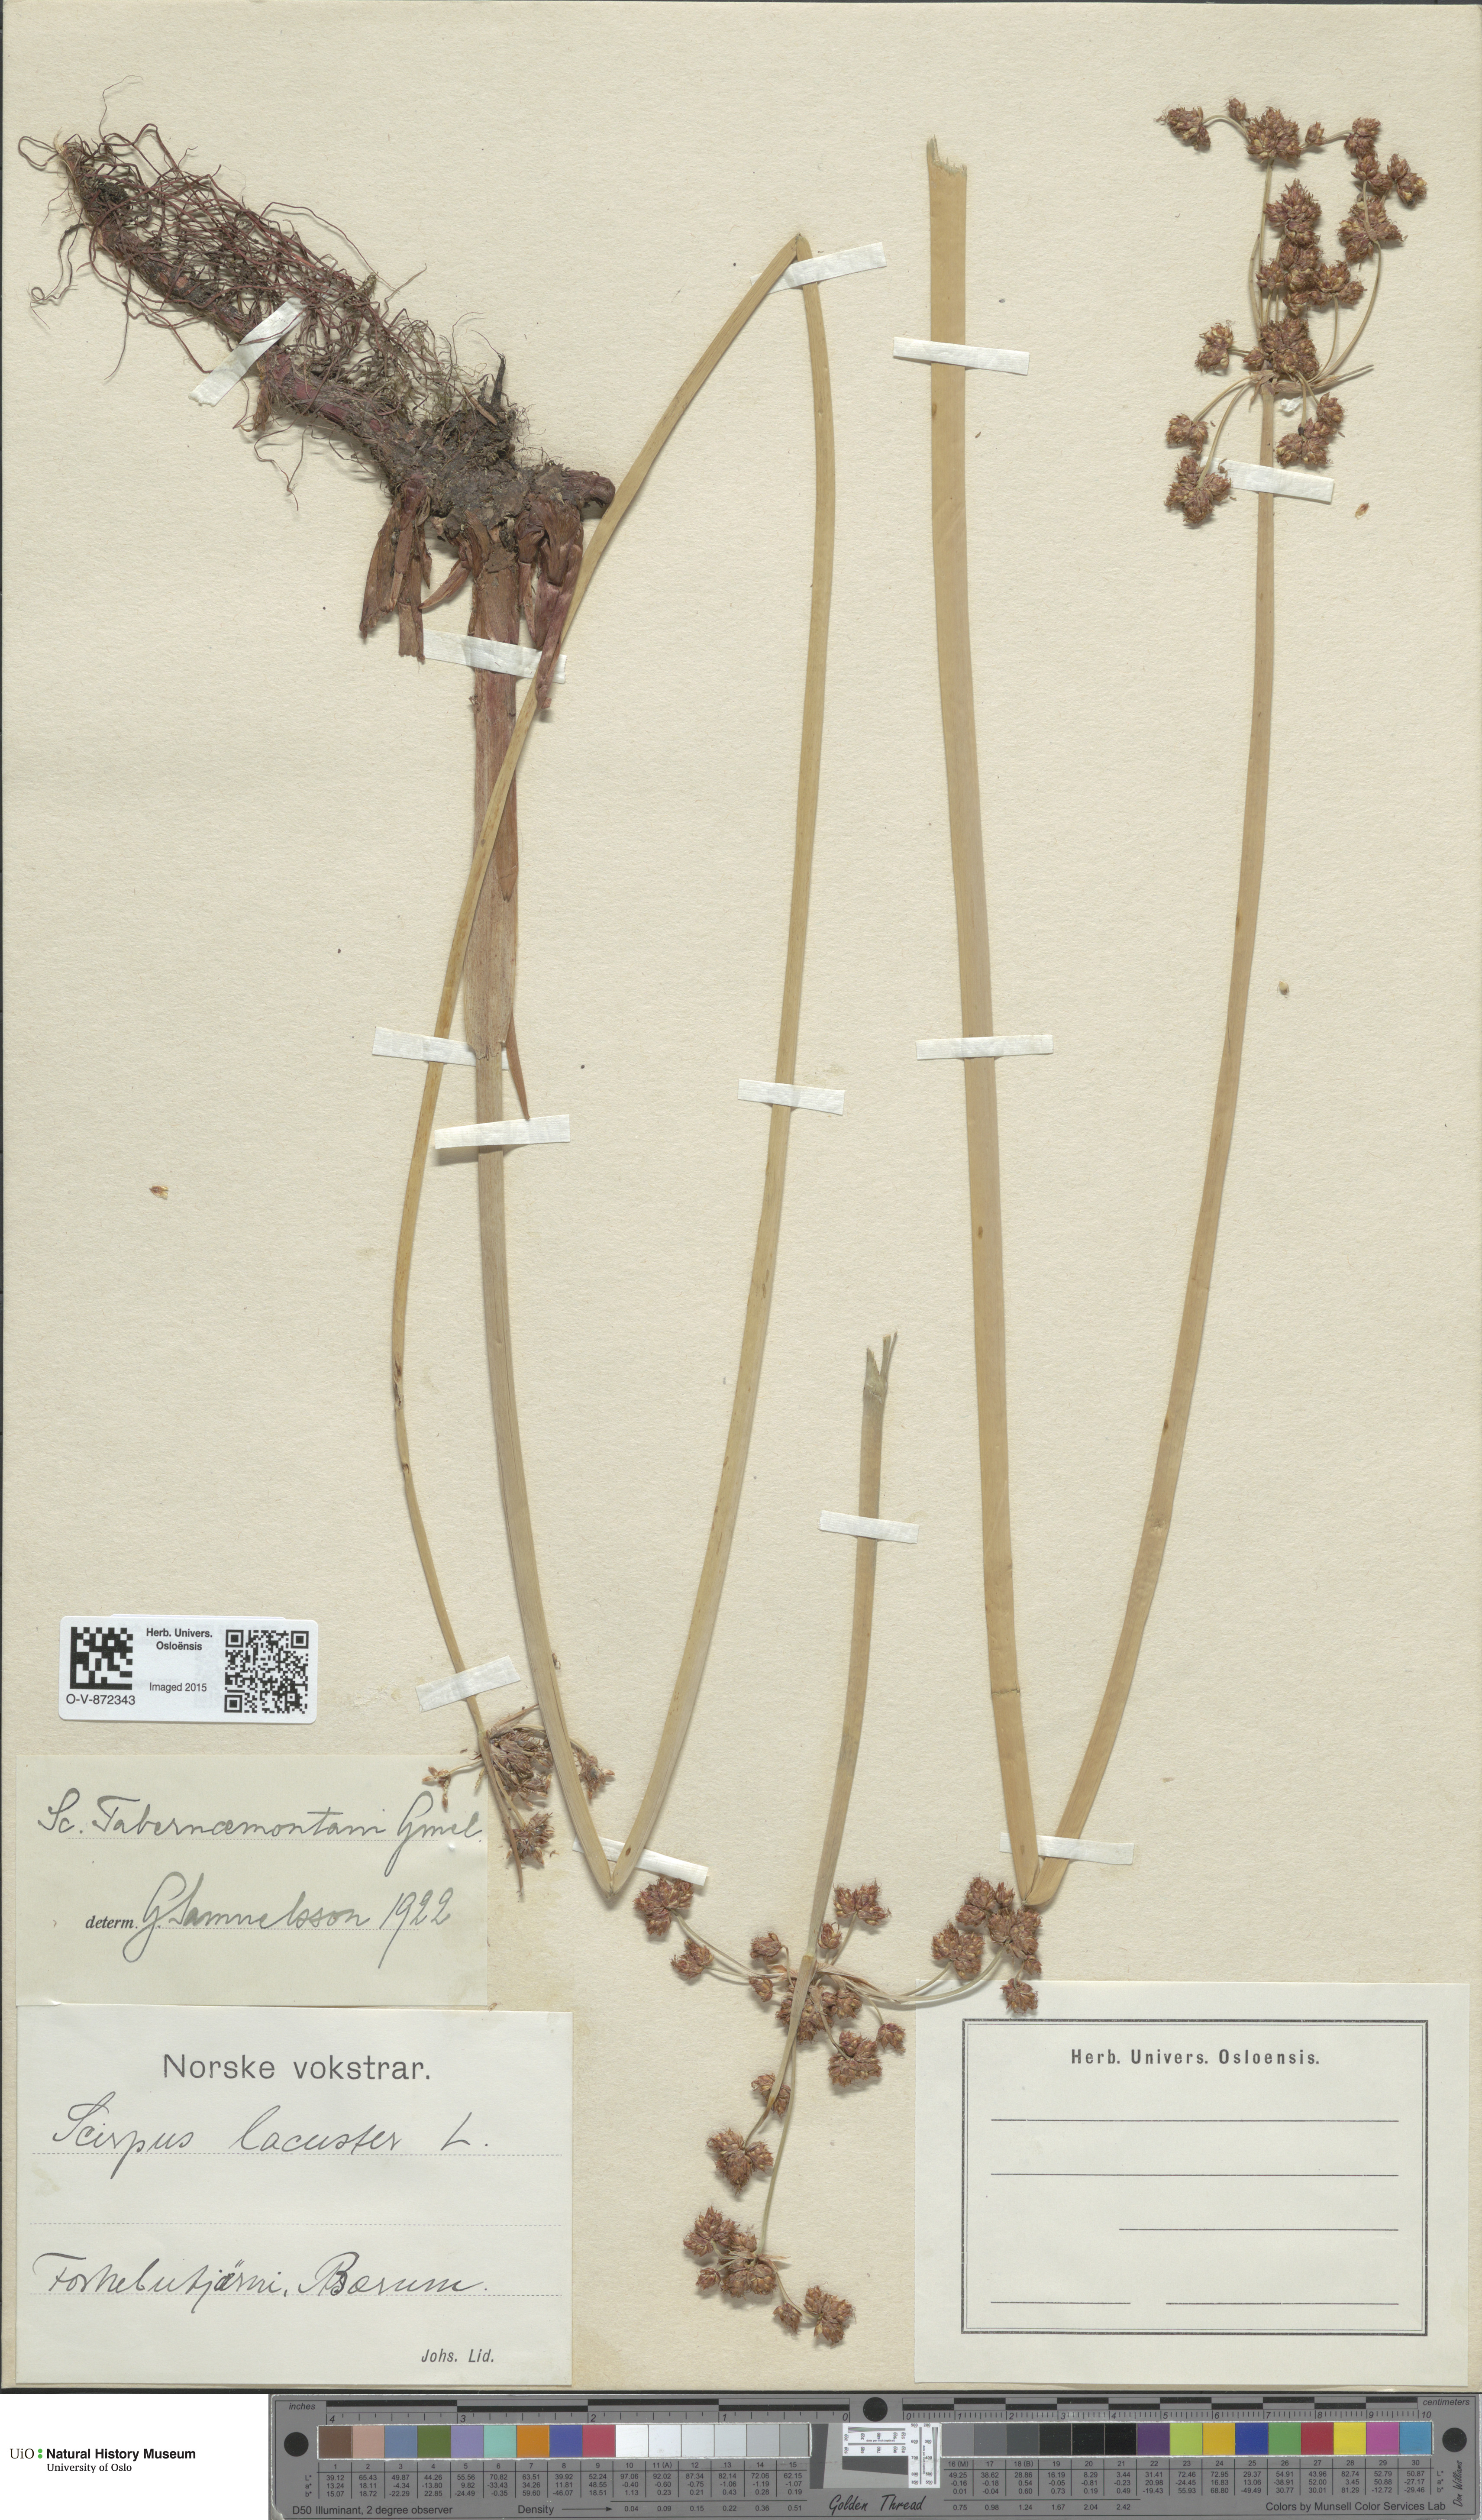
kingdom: Plantae
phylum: Tracheophyta
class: Liliopsida
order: Poales
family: Cyperaceae
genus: Schoenoplectus
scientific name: Schoenoplectus tabernaemontani
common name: Grey club-rush
